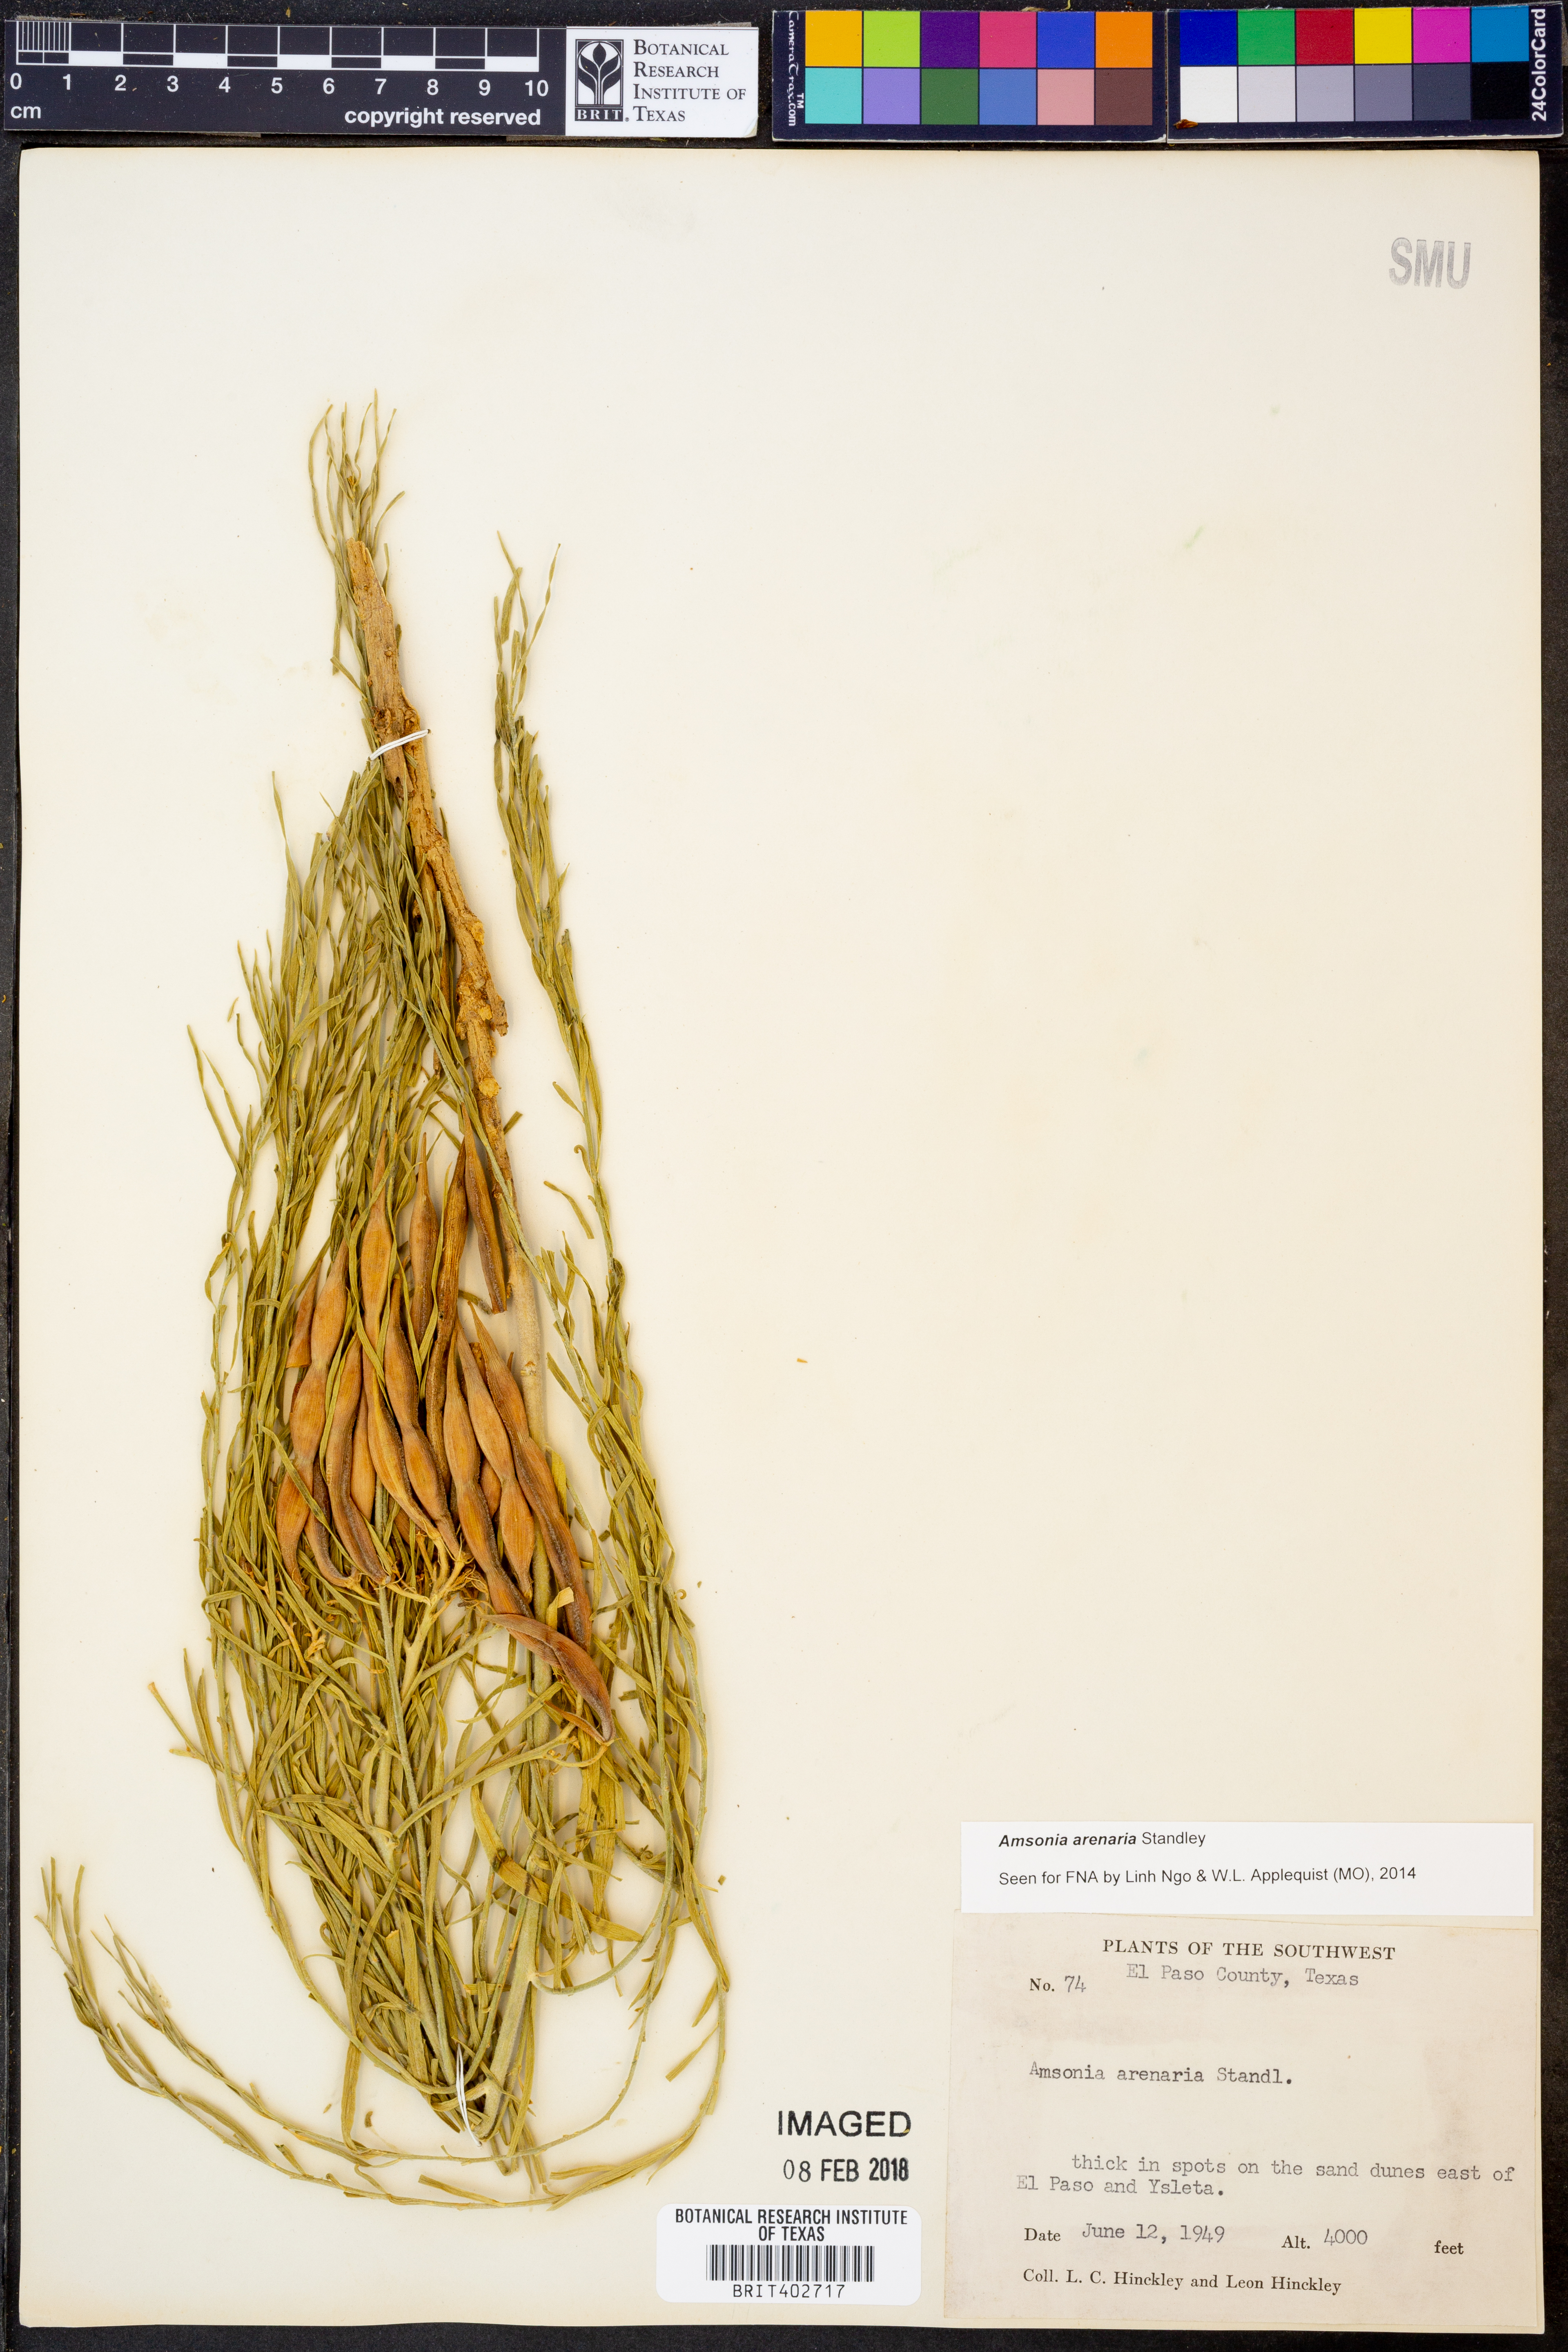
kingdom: Plantae
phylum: Tracheophyta
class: Magnoliopsida
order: Gentianales
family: Apocynaceae
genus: Amsonia
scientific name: Amsonia tomentosa
